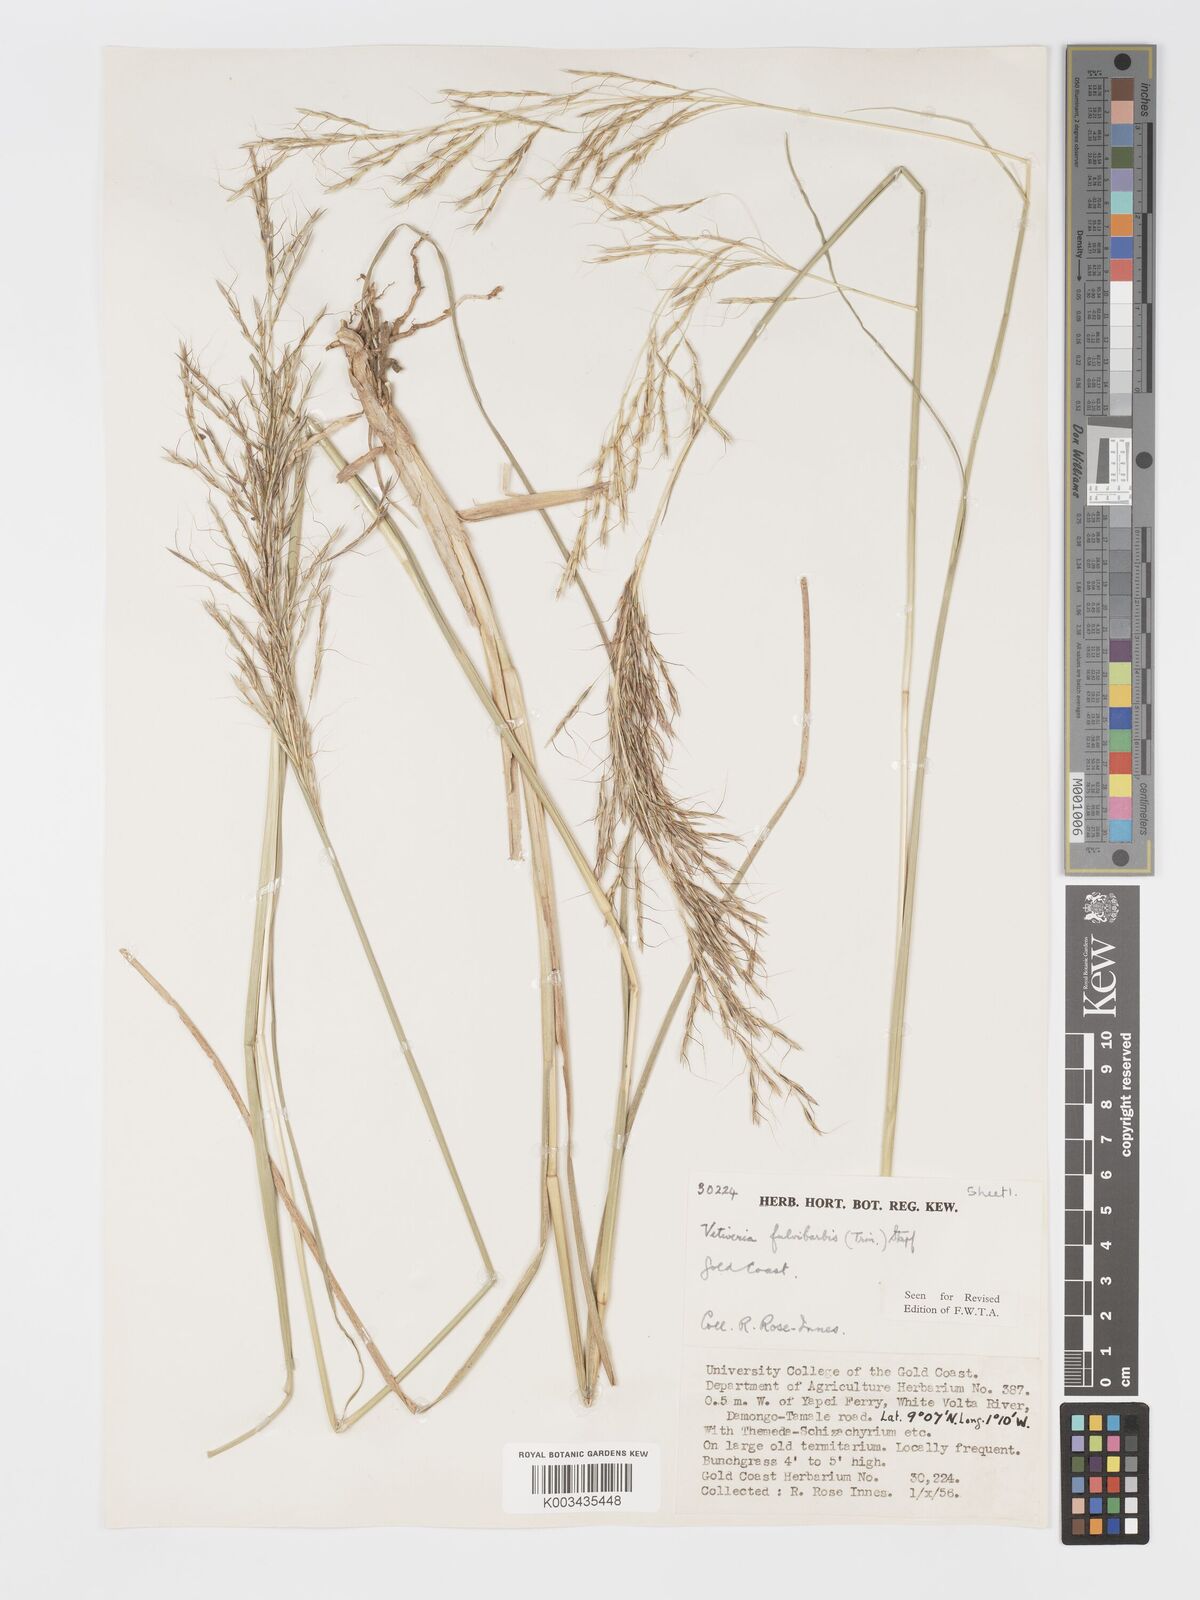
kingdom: Plantae
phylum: Tracheophyta
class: Liliopsida
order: Poales
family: Poaceae
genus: Chrysopogon
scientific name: Chrysopogon fulvibarbis
